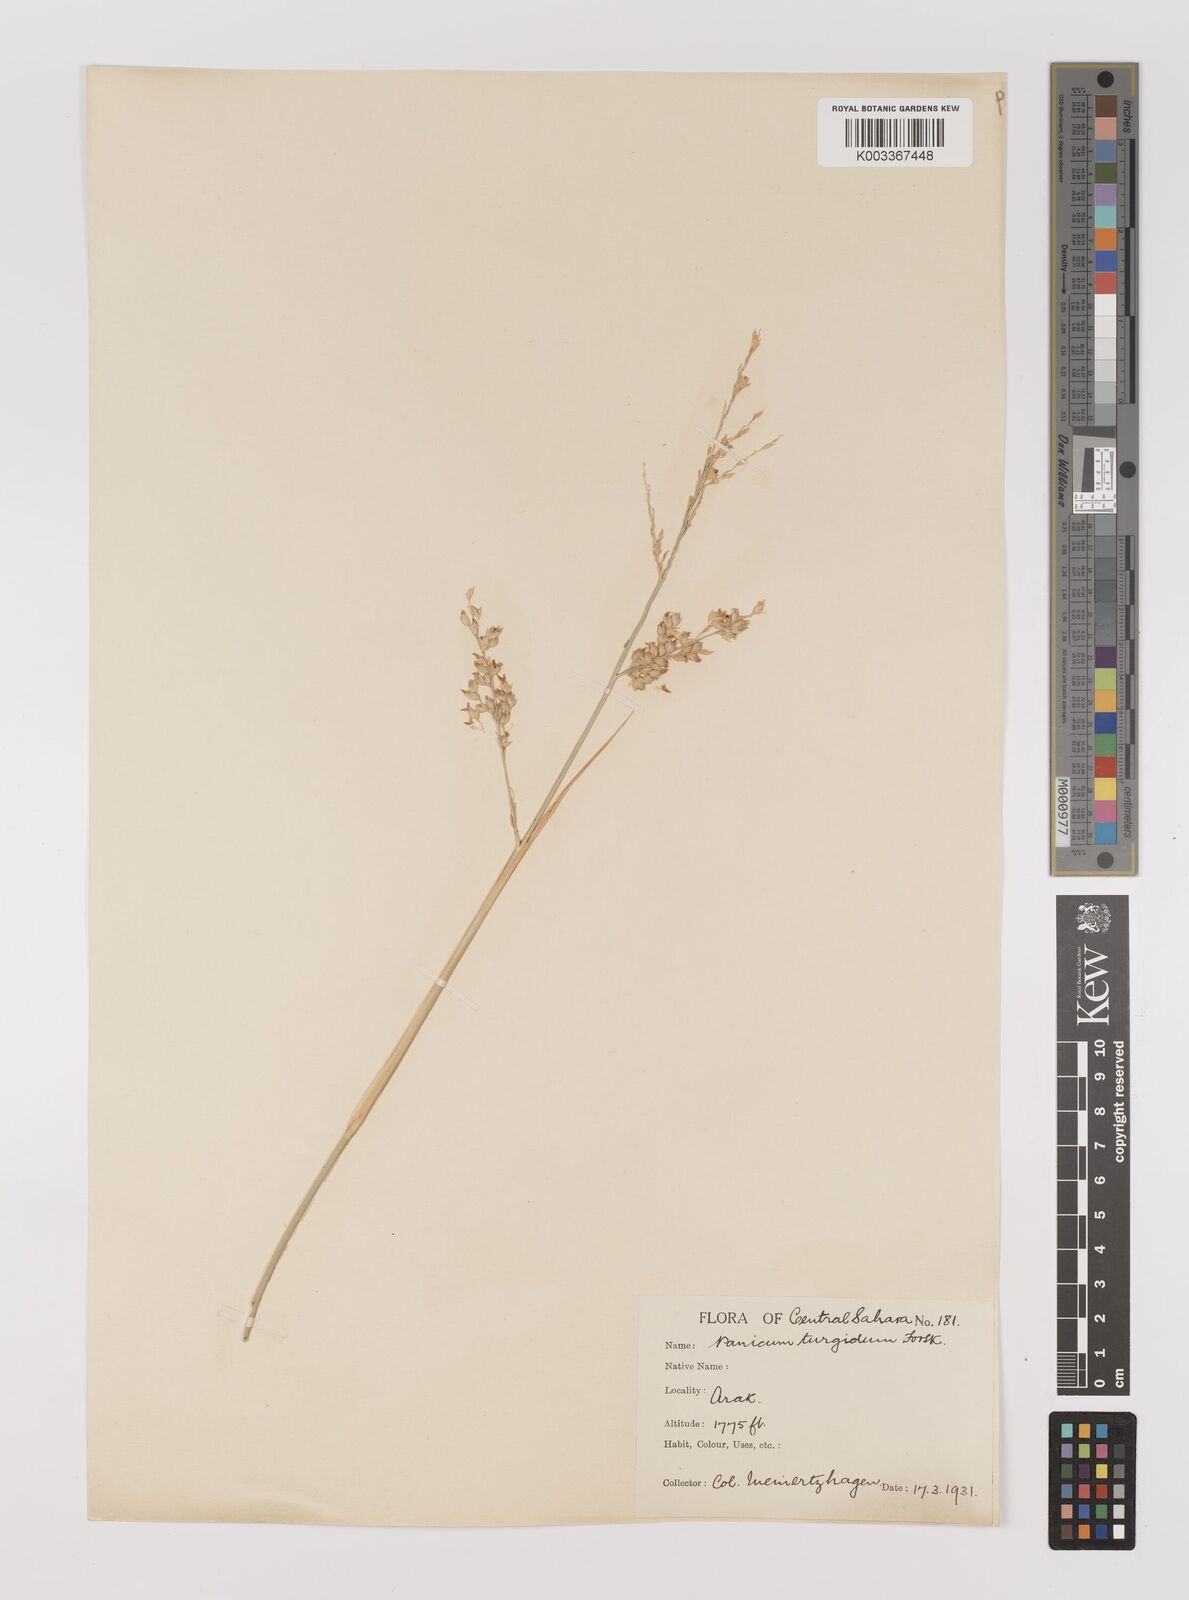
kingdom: Plantae
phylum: Tracheophyta
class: Liliopsida
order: Poales
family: Poaceae
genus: Panicum
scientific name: Panicum turgidum
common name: Desert grass
